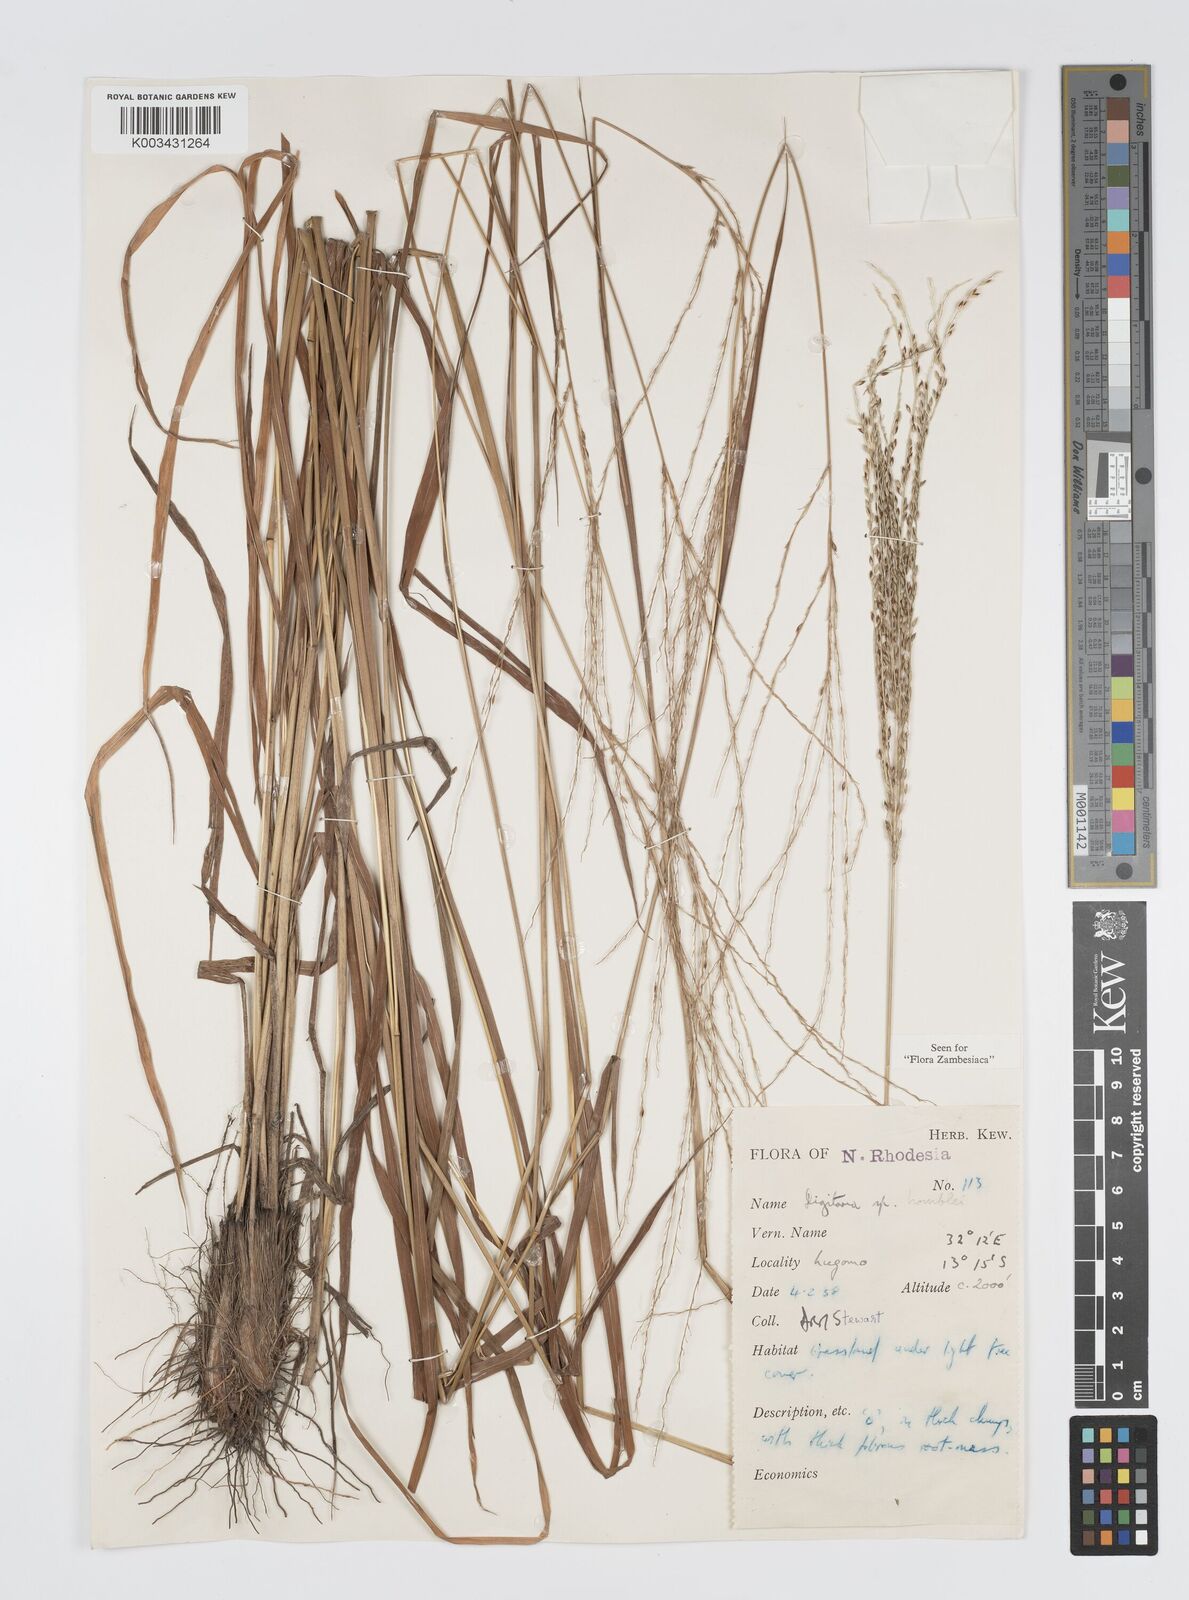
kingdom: Plantae
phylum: Tracheophyta
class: Liliopsida
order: Poales
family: Poaceae
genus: Digitaria
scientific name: Digitaria compressa
